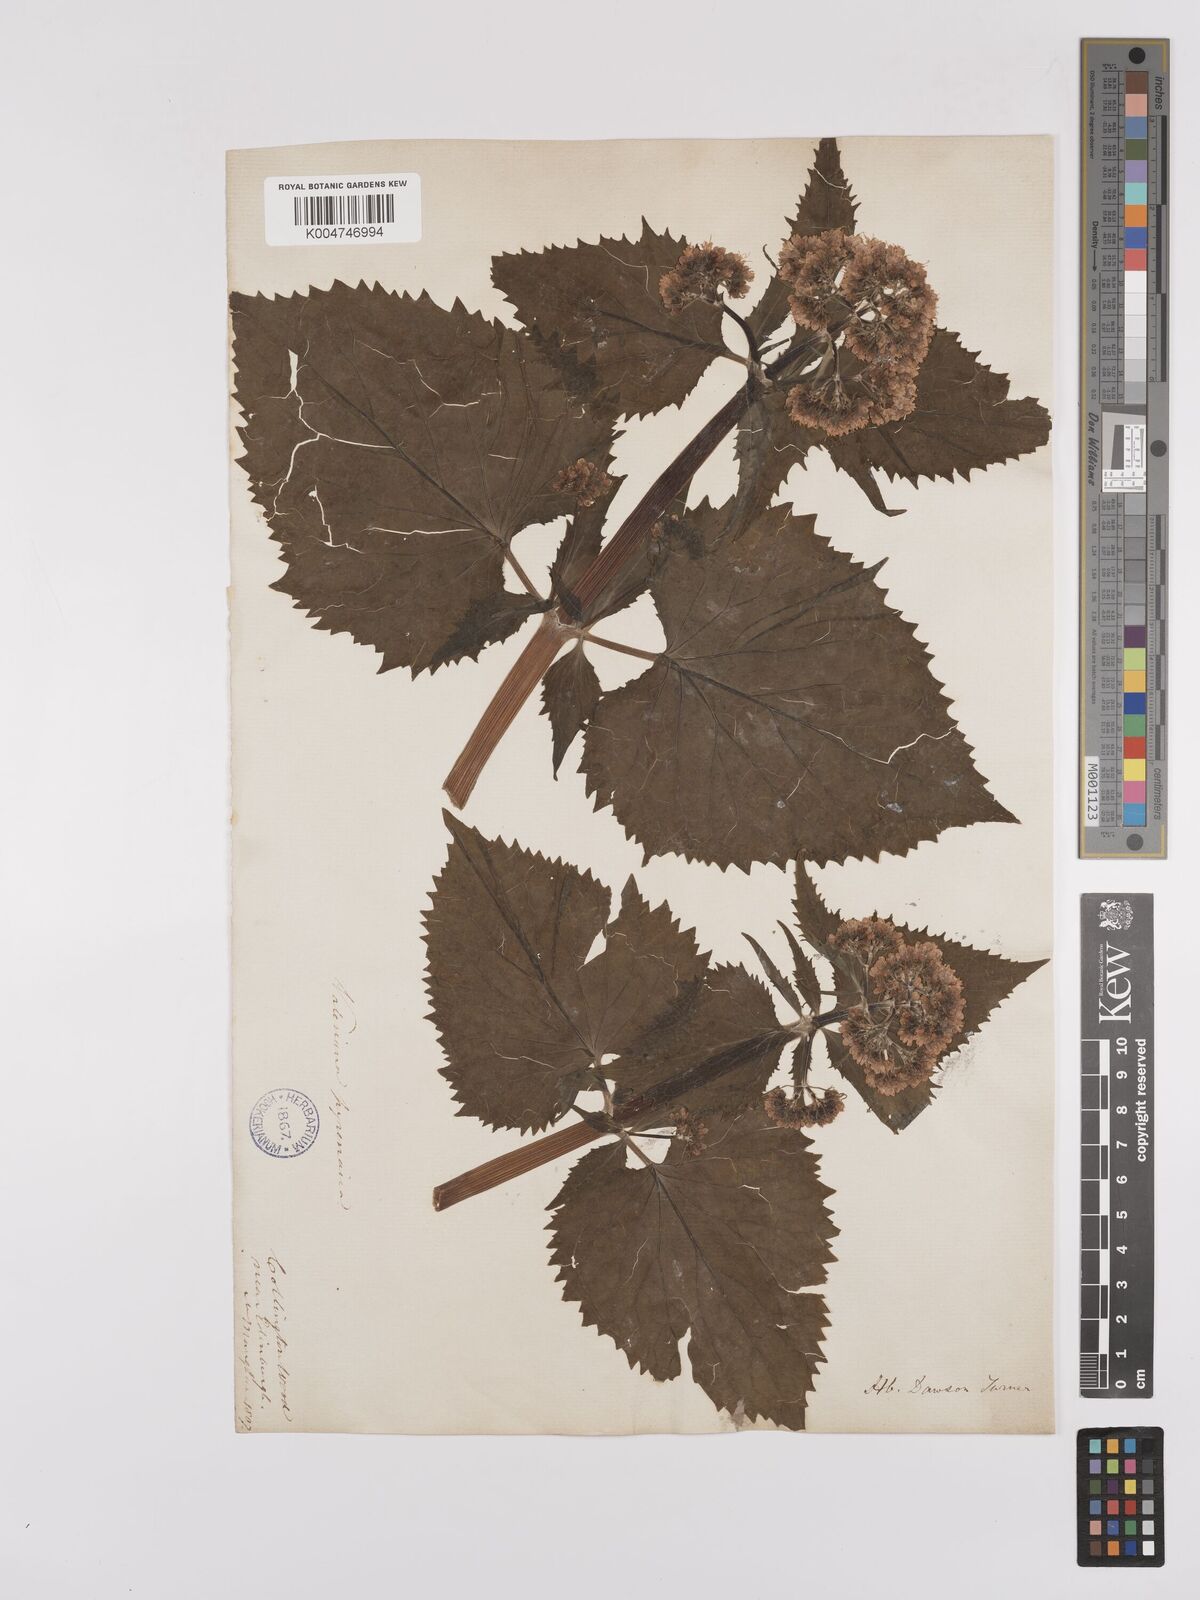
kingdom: Plantae
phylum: Tracheophyta
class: Magnoliopsida
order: Dipsacales
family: Caprifoliaceae
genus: Valeriana
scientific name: Valeriana pyrenaica
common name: Pyrenean valerian
